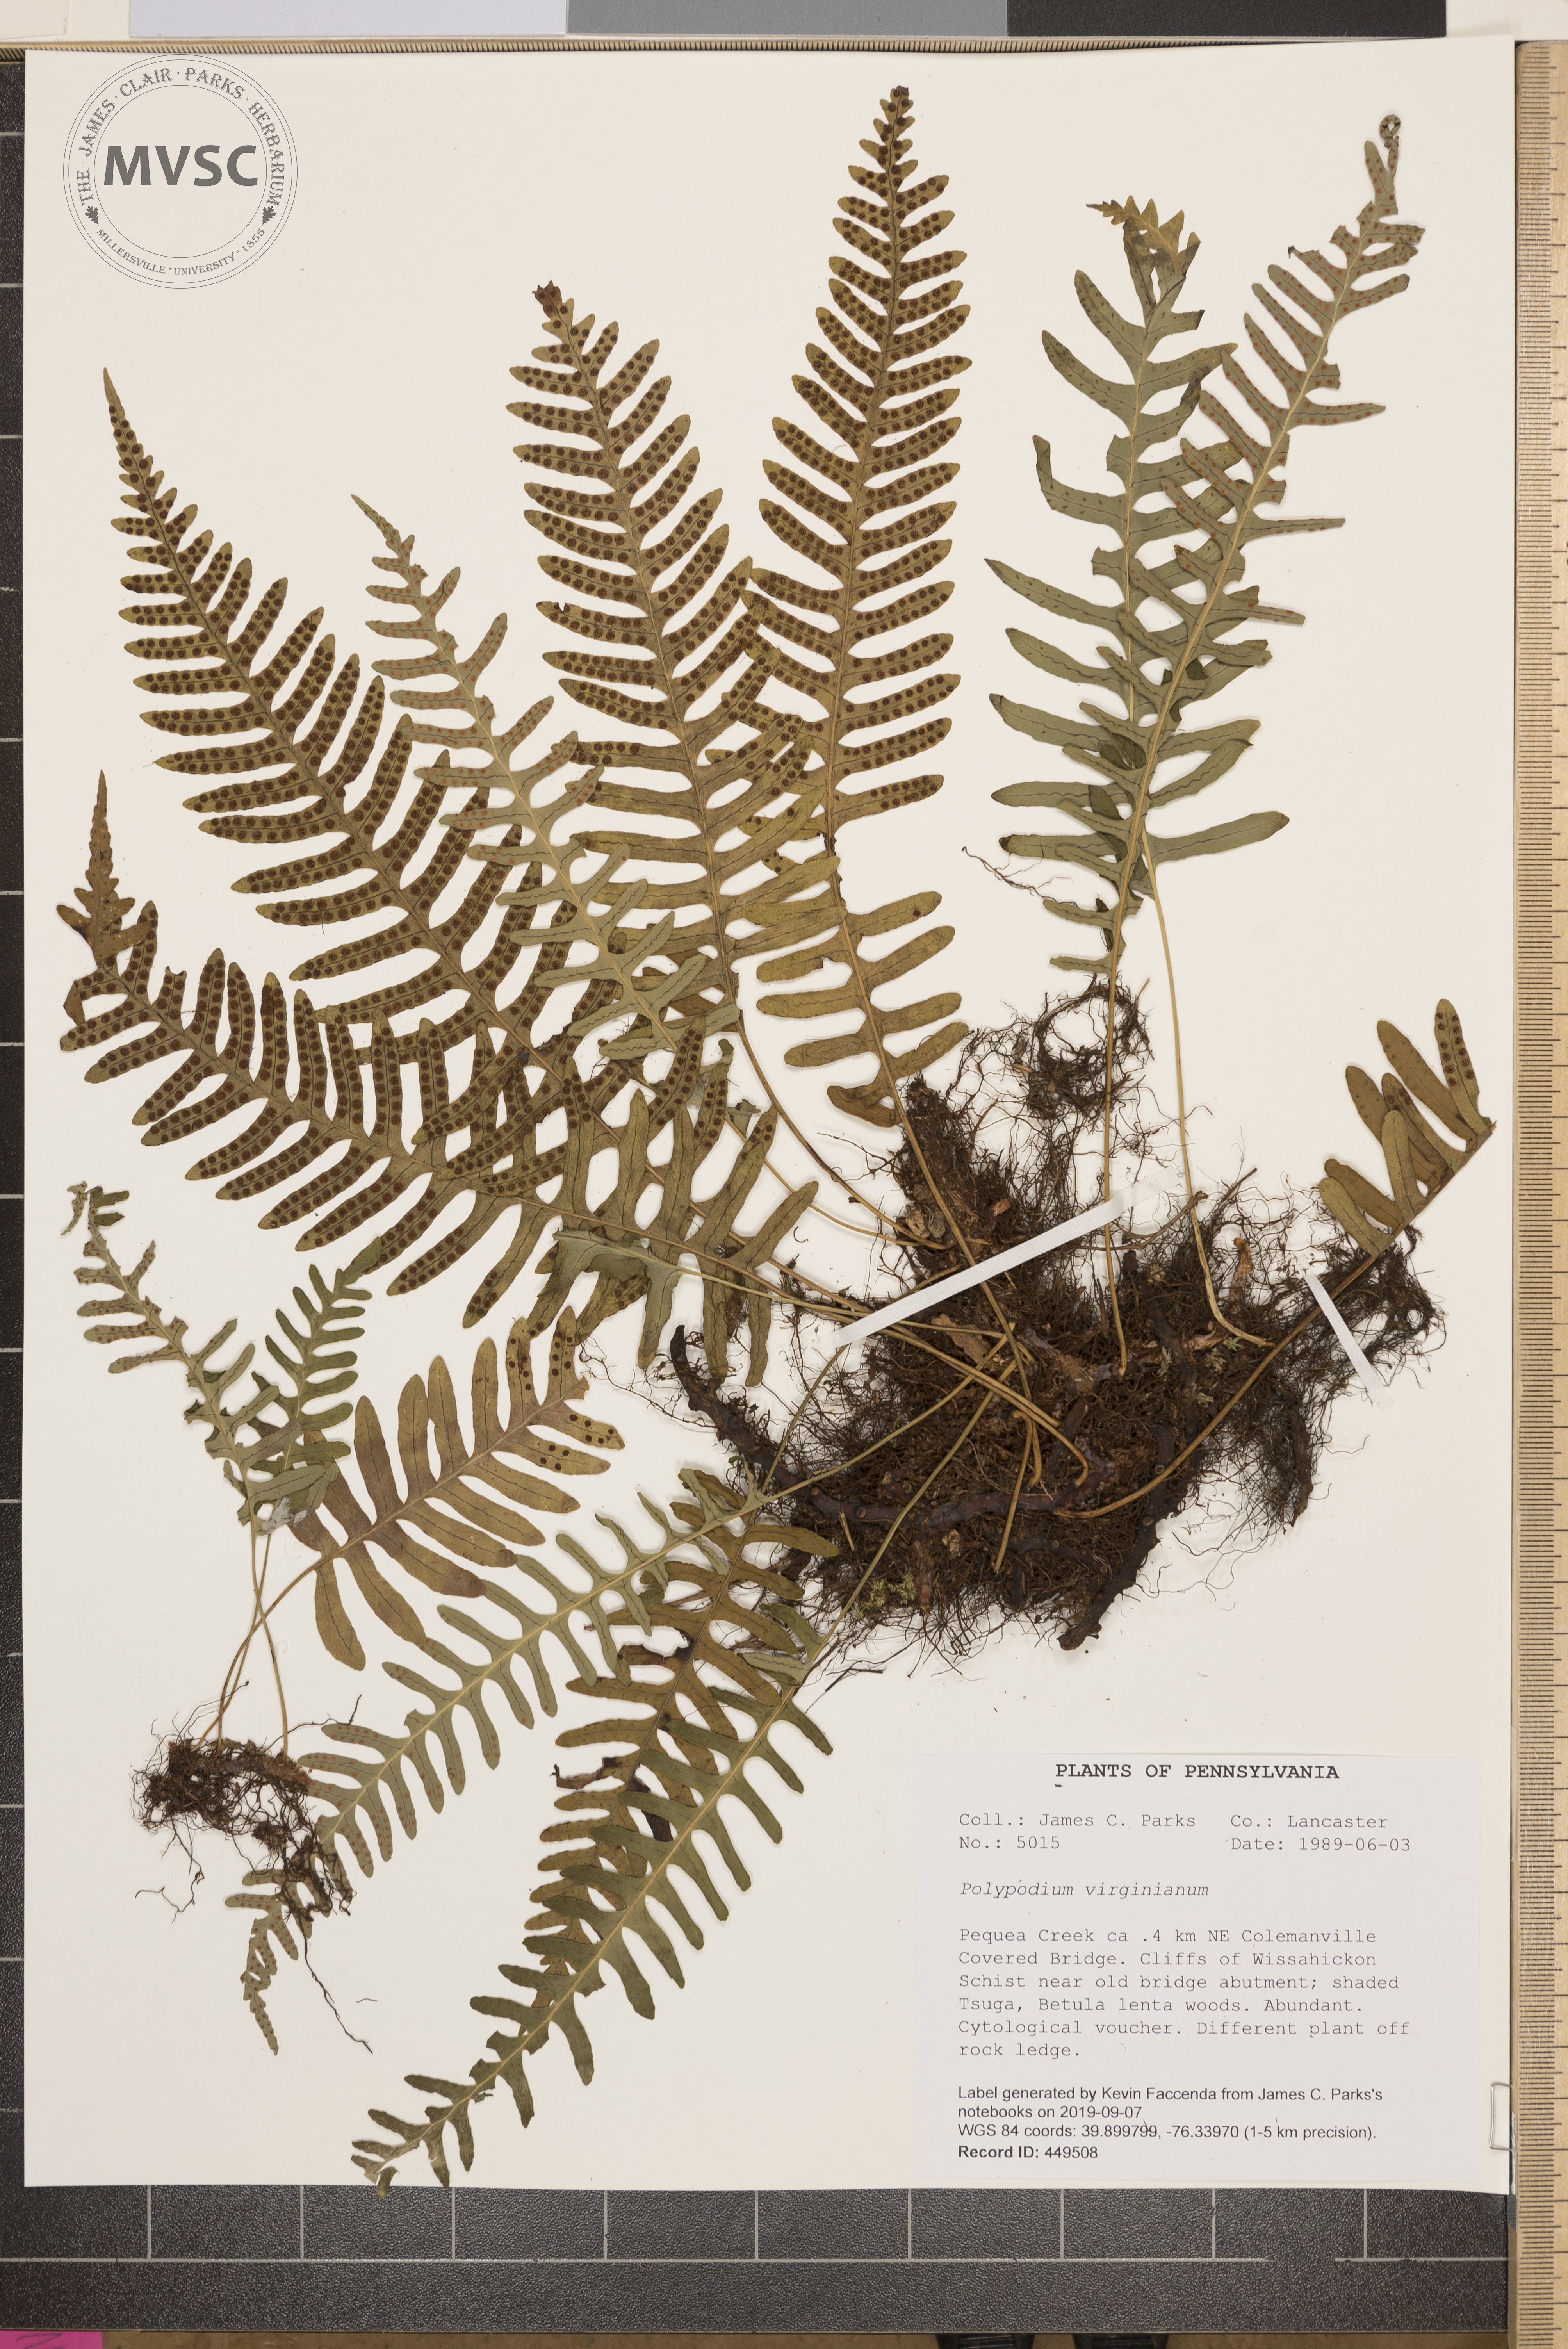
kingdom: Plantae
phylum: Tracheophyta
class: Polypodiopsida
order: Polypodiales
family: Polypodiaceae
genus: Polypodium
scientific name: Polypodium virginianum
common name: American wall fern
